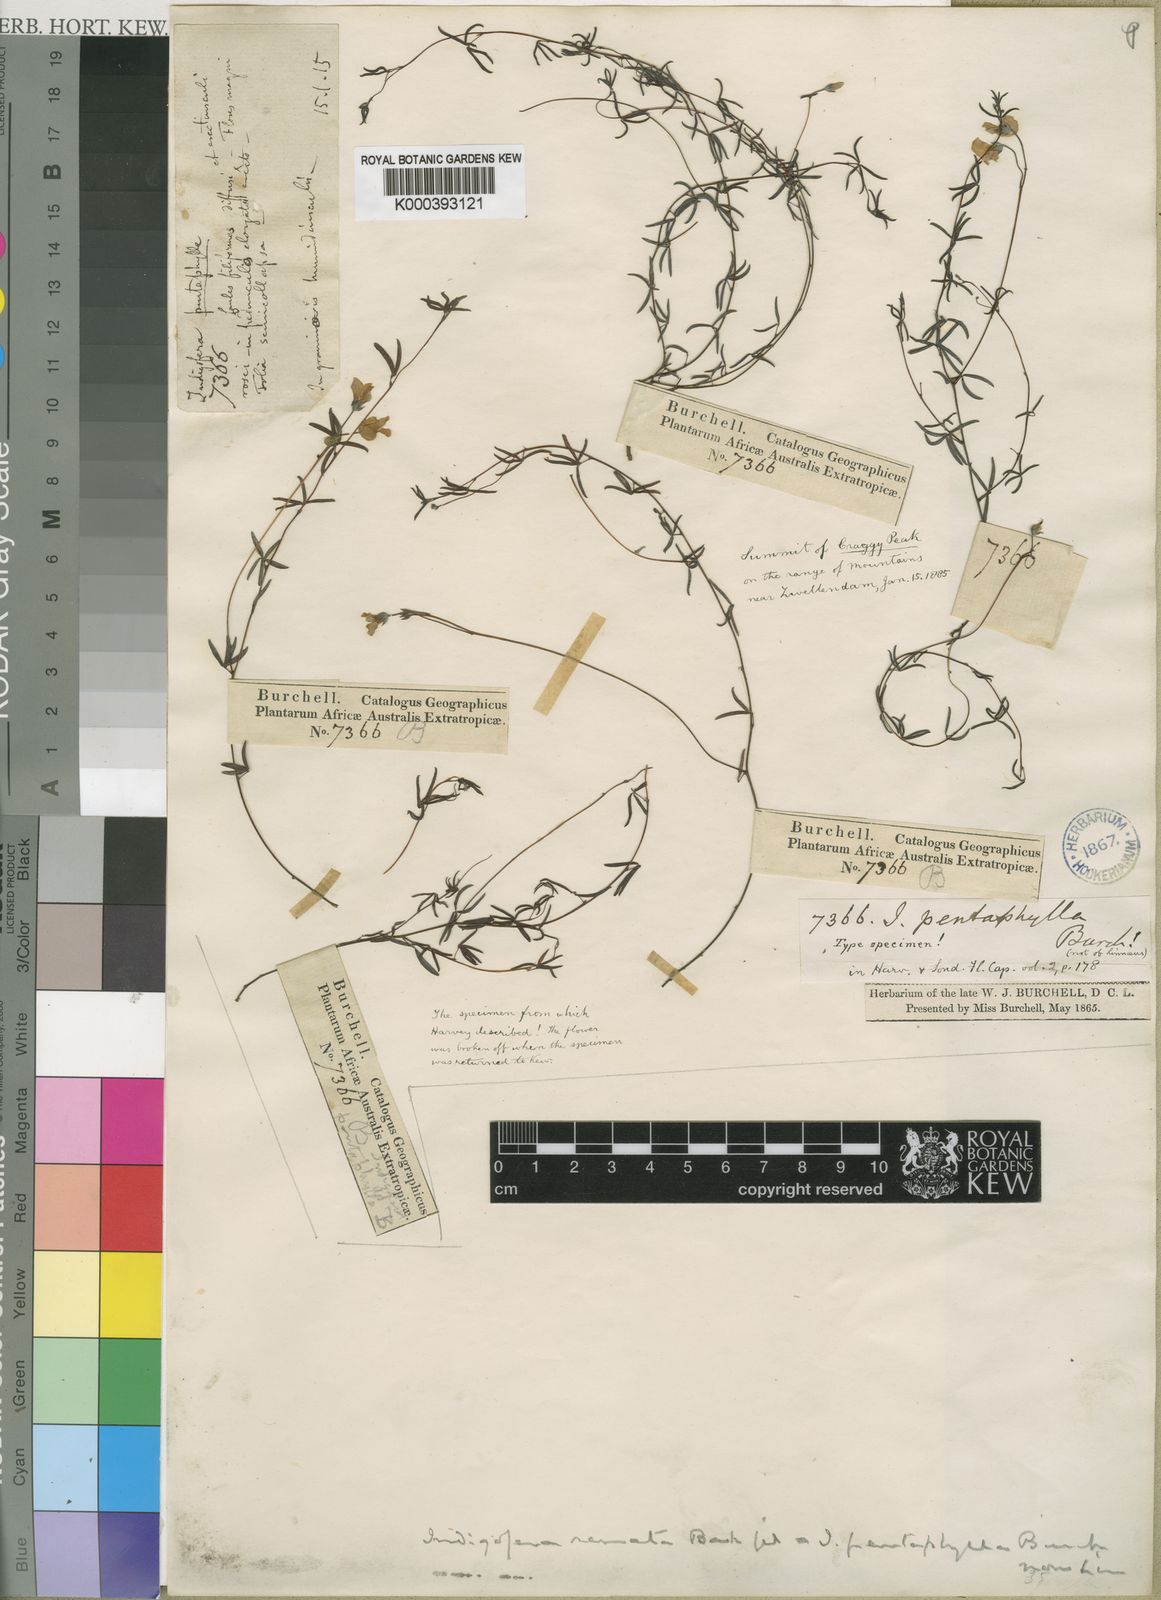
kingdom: Plantae
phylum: Tracheophyta
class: Magnoliopsida
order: Fabales
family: Fabaceae
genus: Indigofera
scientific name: Indigofera brevicalyx
